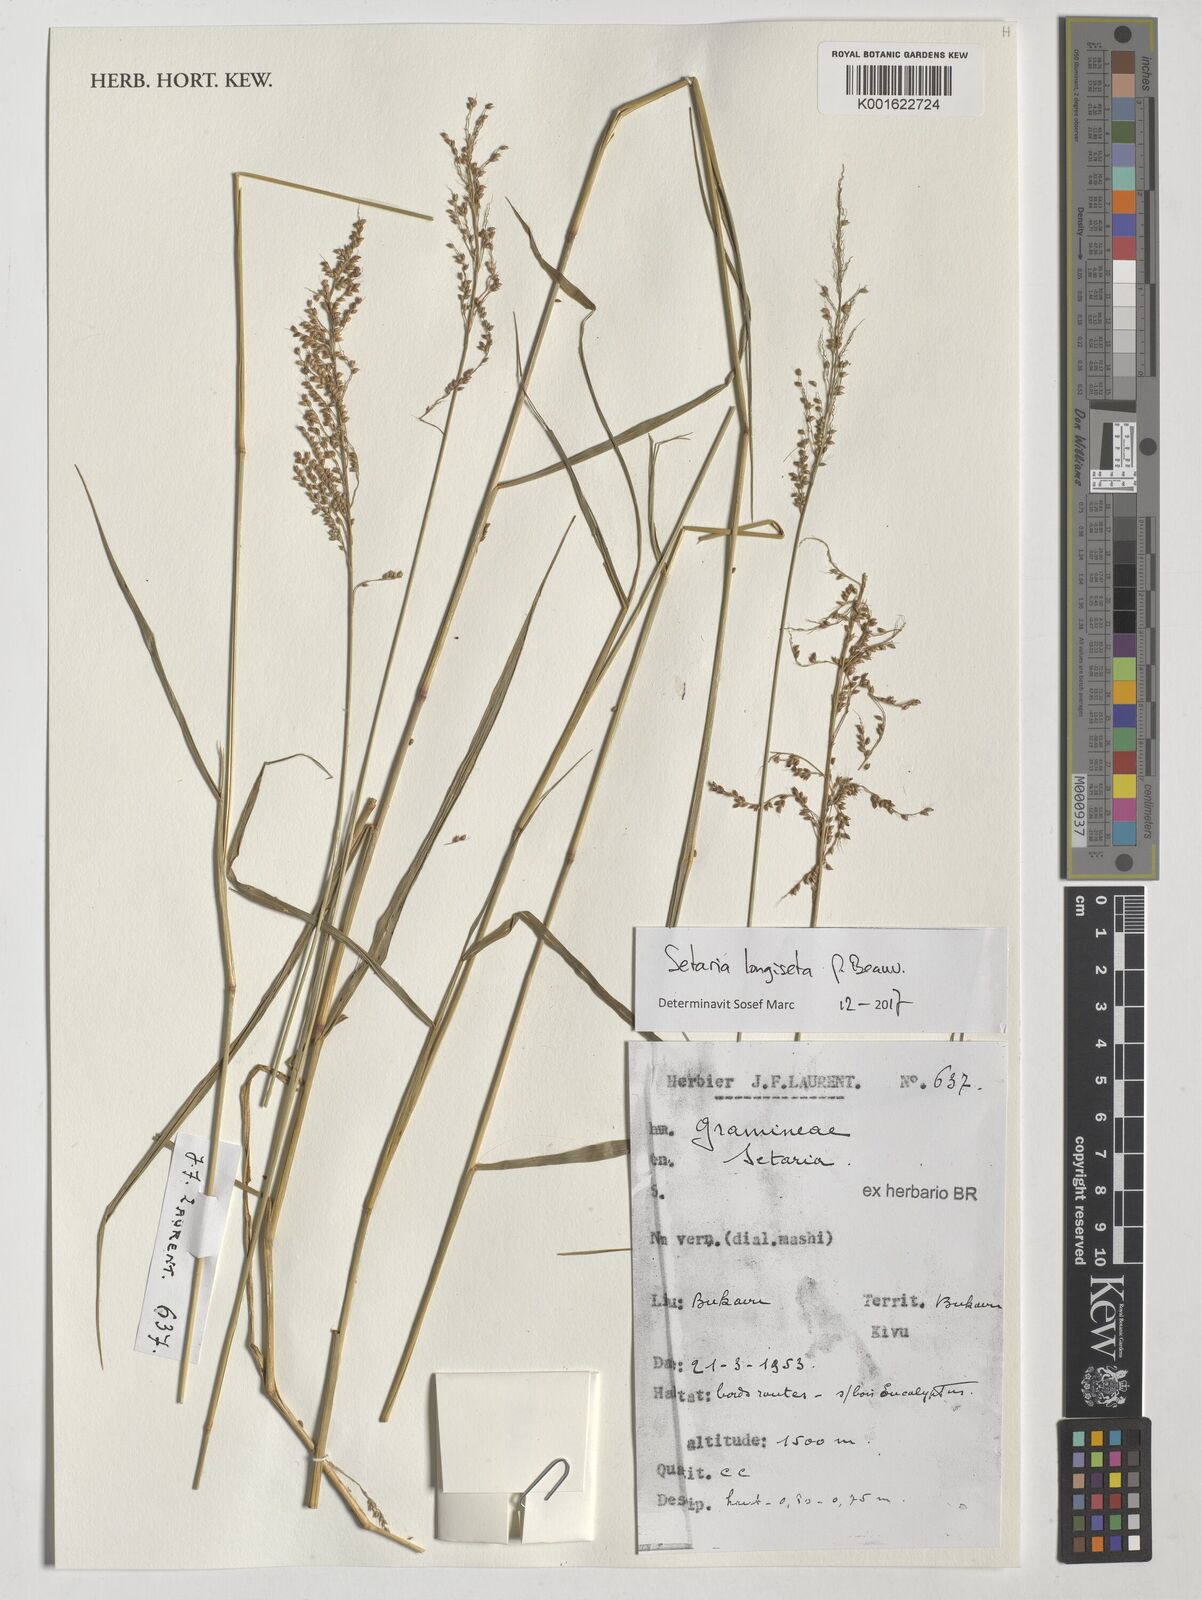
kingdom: Plantae
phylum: Tracheophyta
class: Liliopsida
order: Poales
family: Poaceae
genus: Setaria
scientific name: Setaria longiseta
